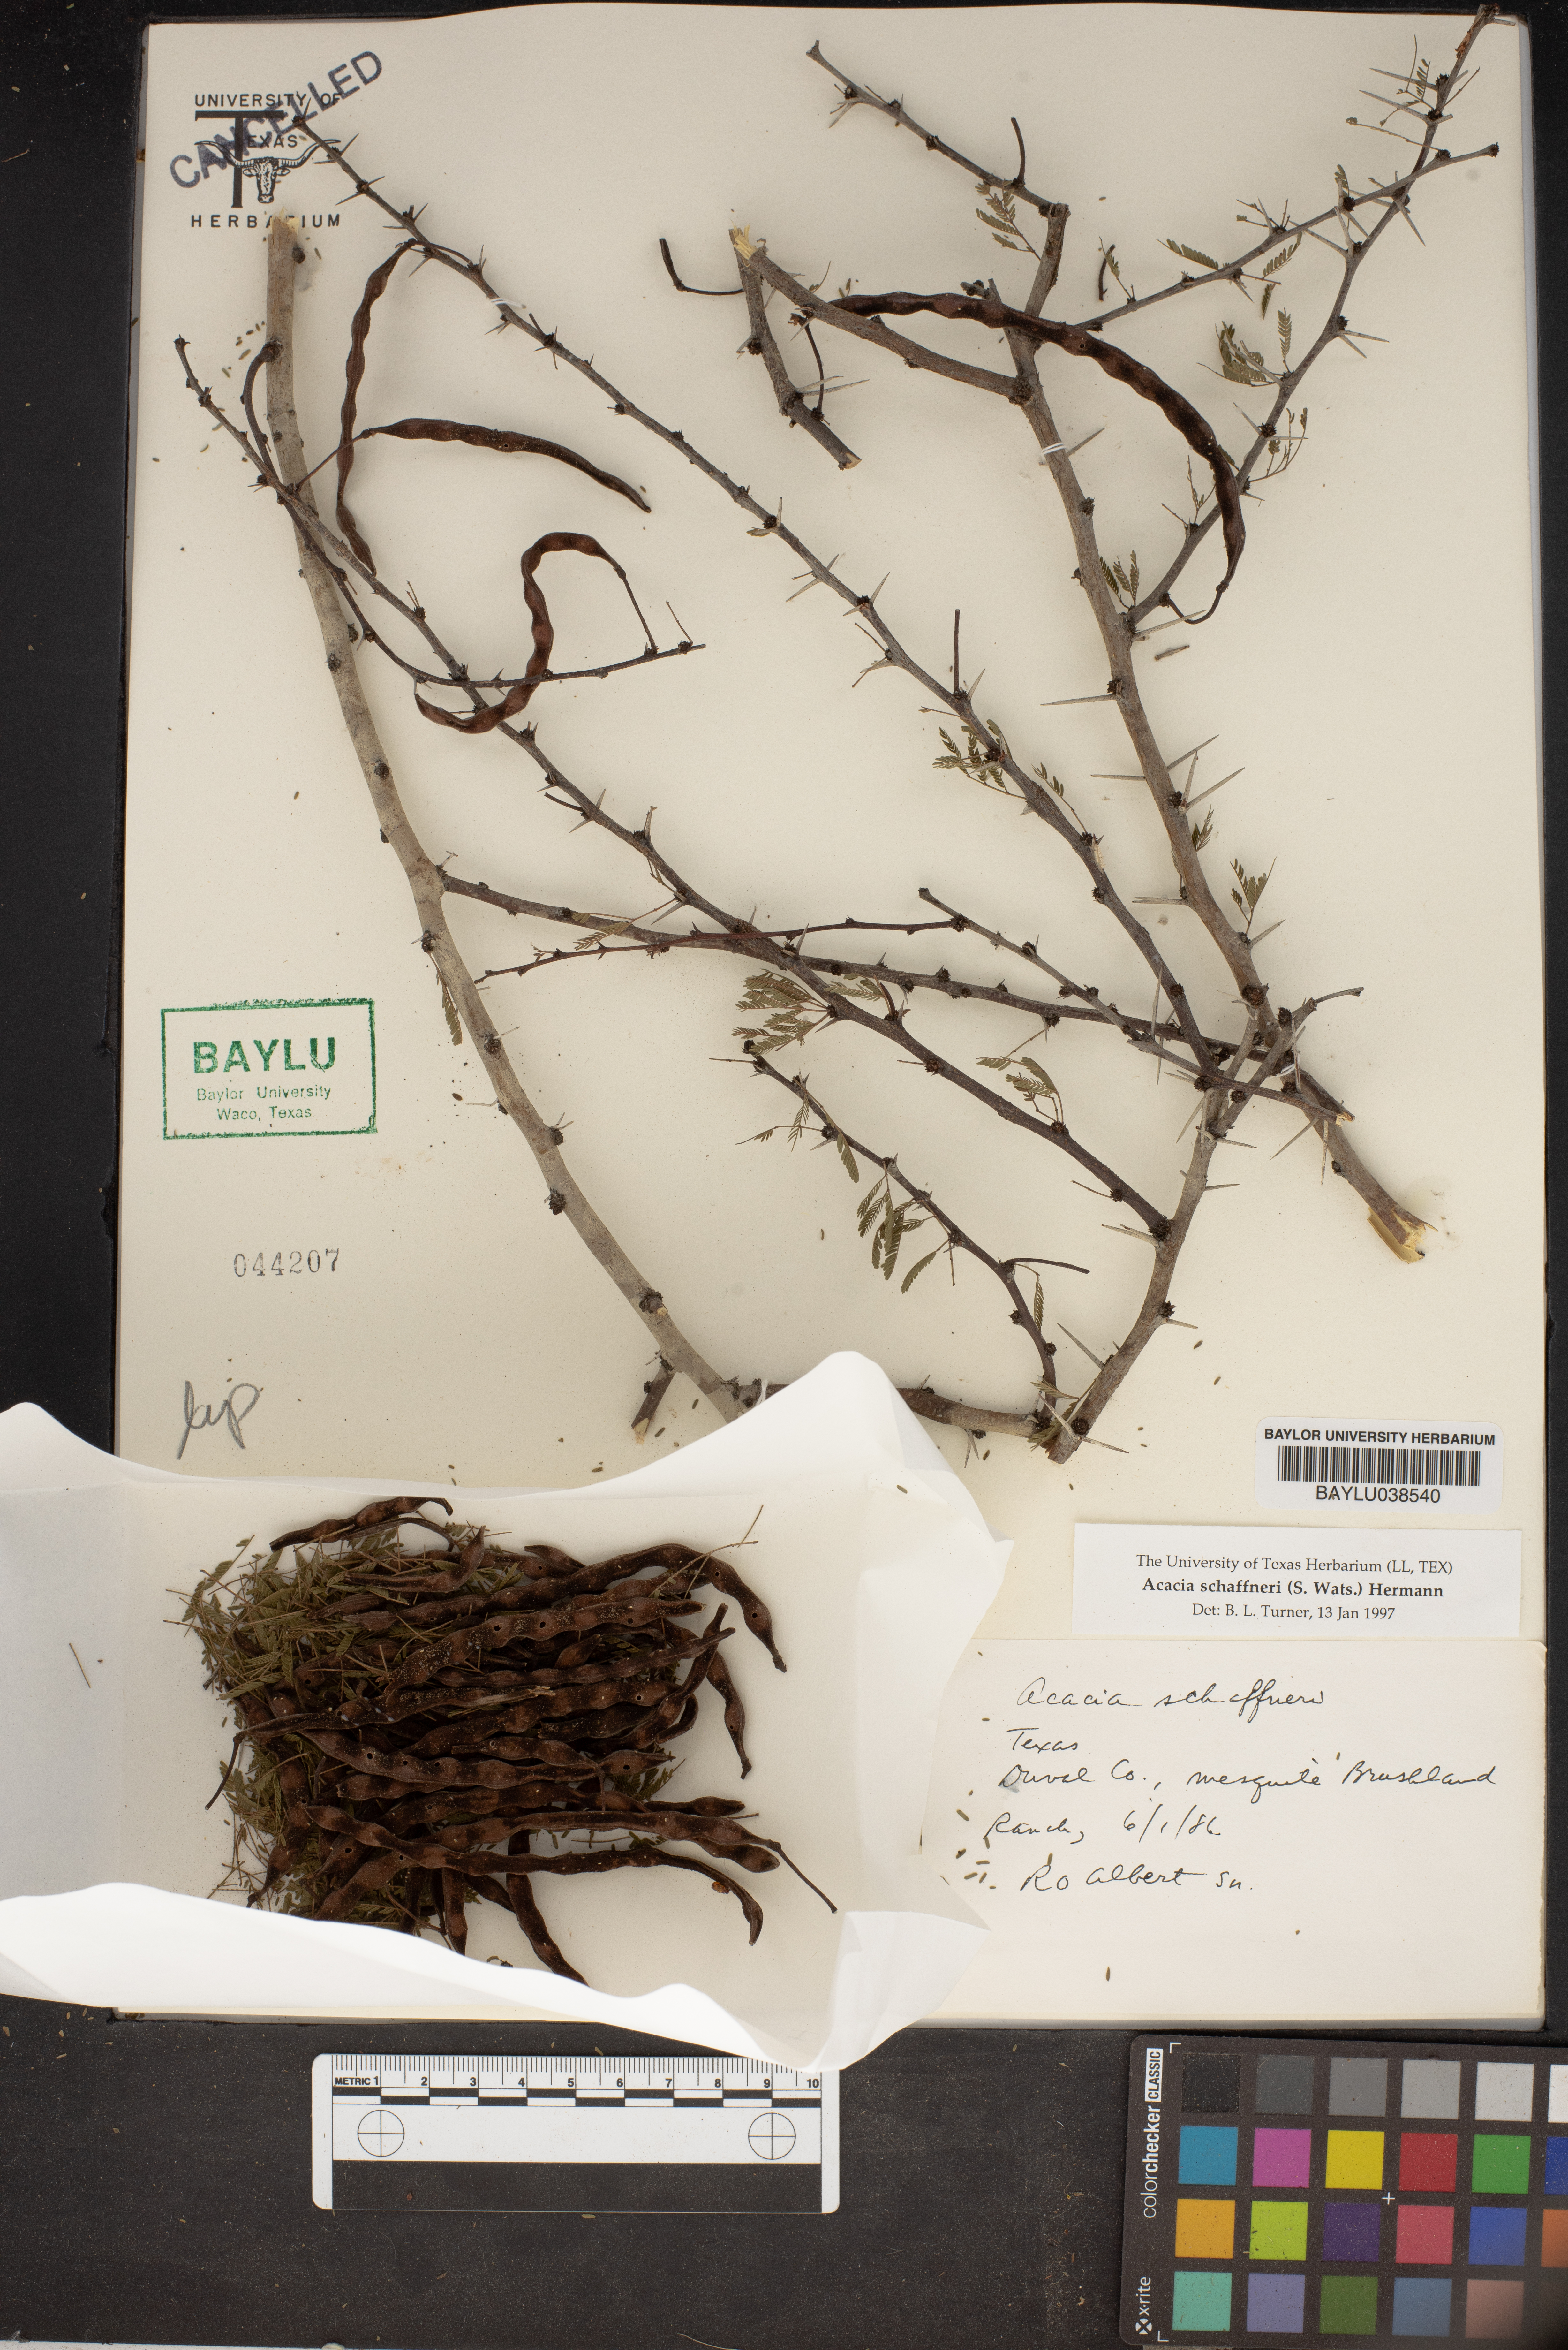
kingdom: Plantae
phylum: Tracheophyta
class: Magnoliopsida
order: Fabales
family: Fabaceae
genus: Vachellia
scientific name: Vachellia schaffneri
